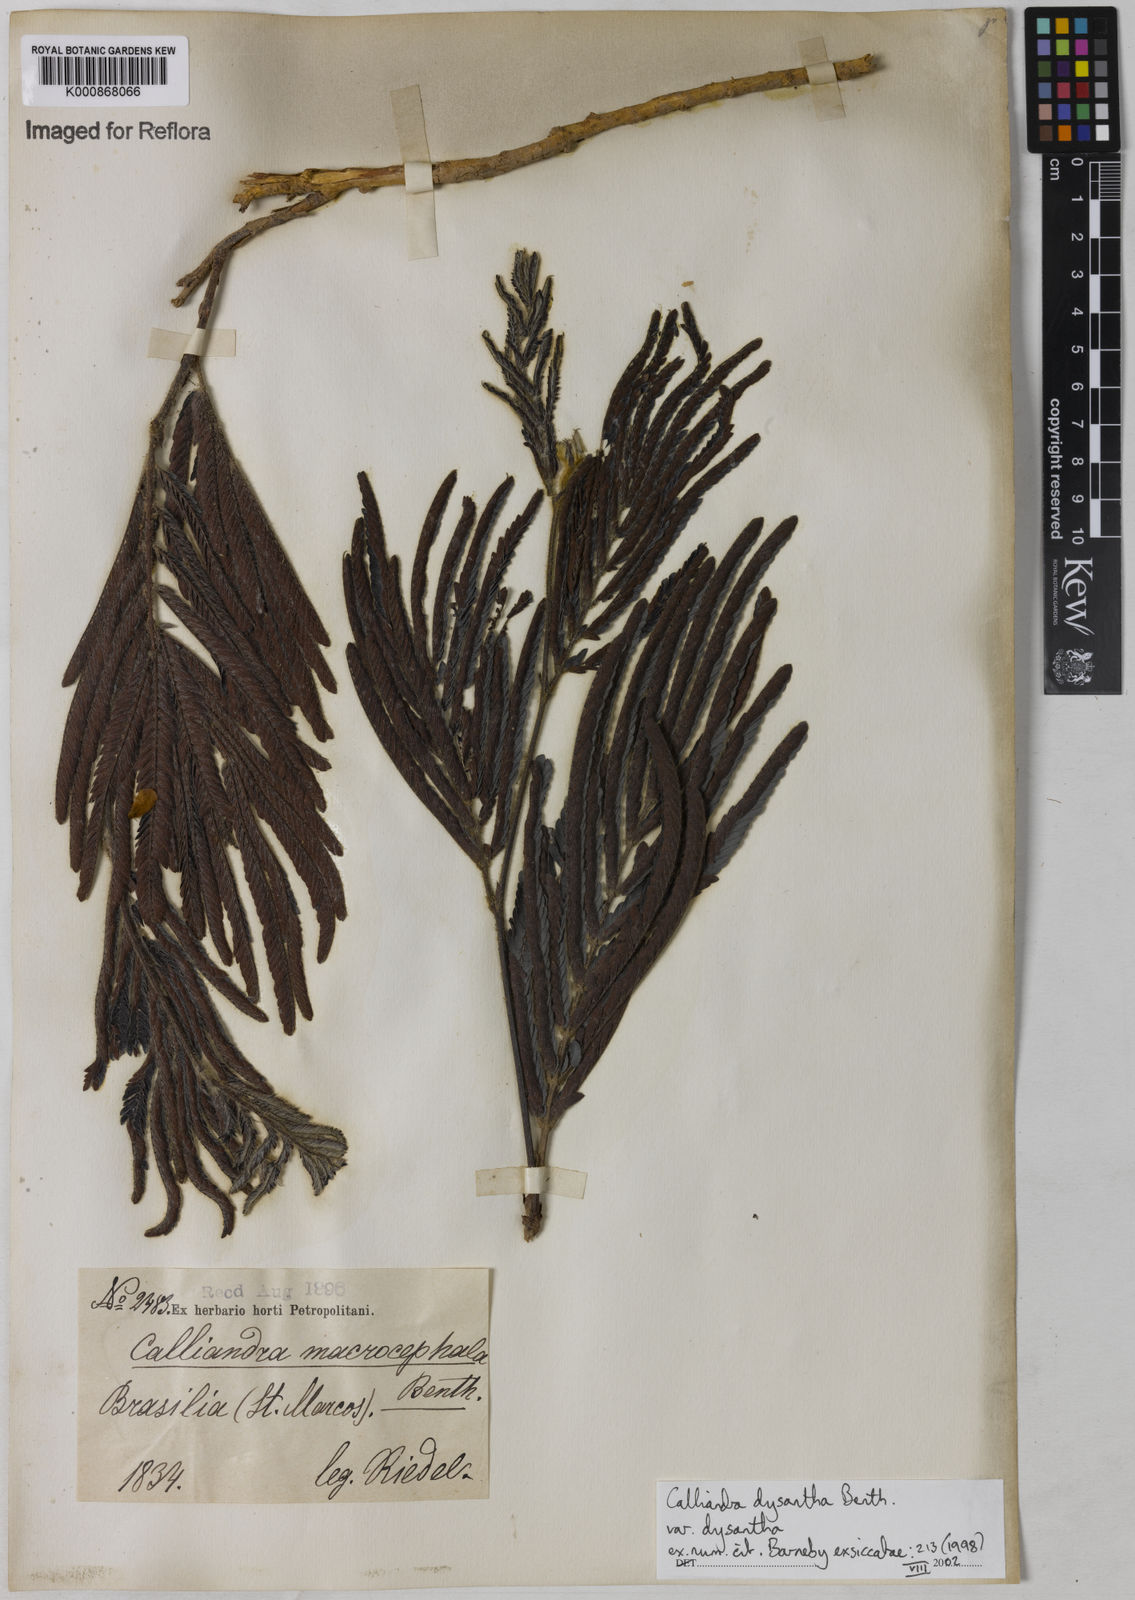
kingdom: Plantae
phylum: Tracheophyta
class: Magnoliopsida
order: Fabales
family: Fabaceae
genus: Calliandra
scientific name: Calliandra dysantha
